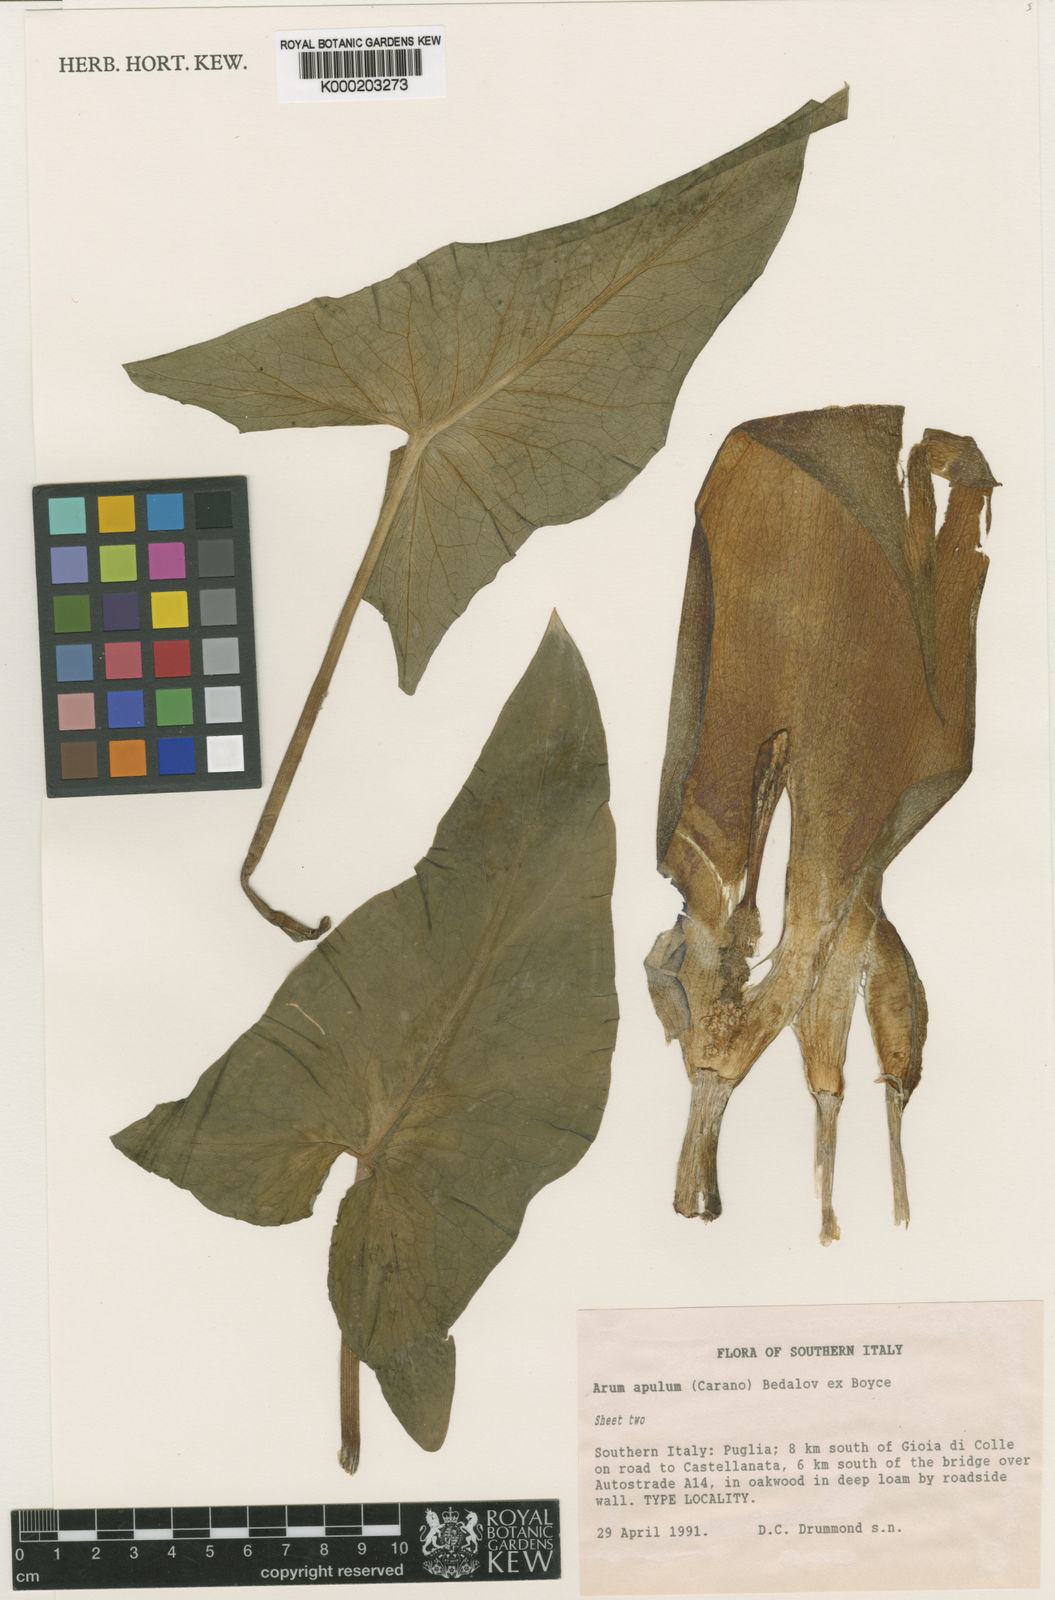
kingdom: Plantae
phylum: Tracheophyta
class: Liliopsida
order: Alismatales
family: Araceae
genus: Arum
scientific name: Arum apulum
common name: Apulian lords and ladies
